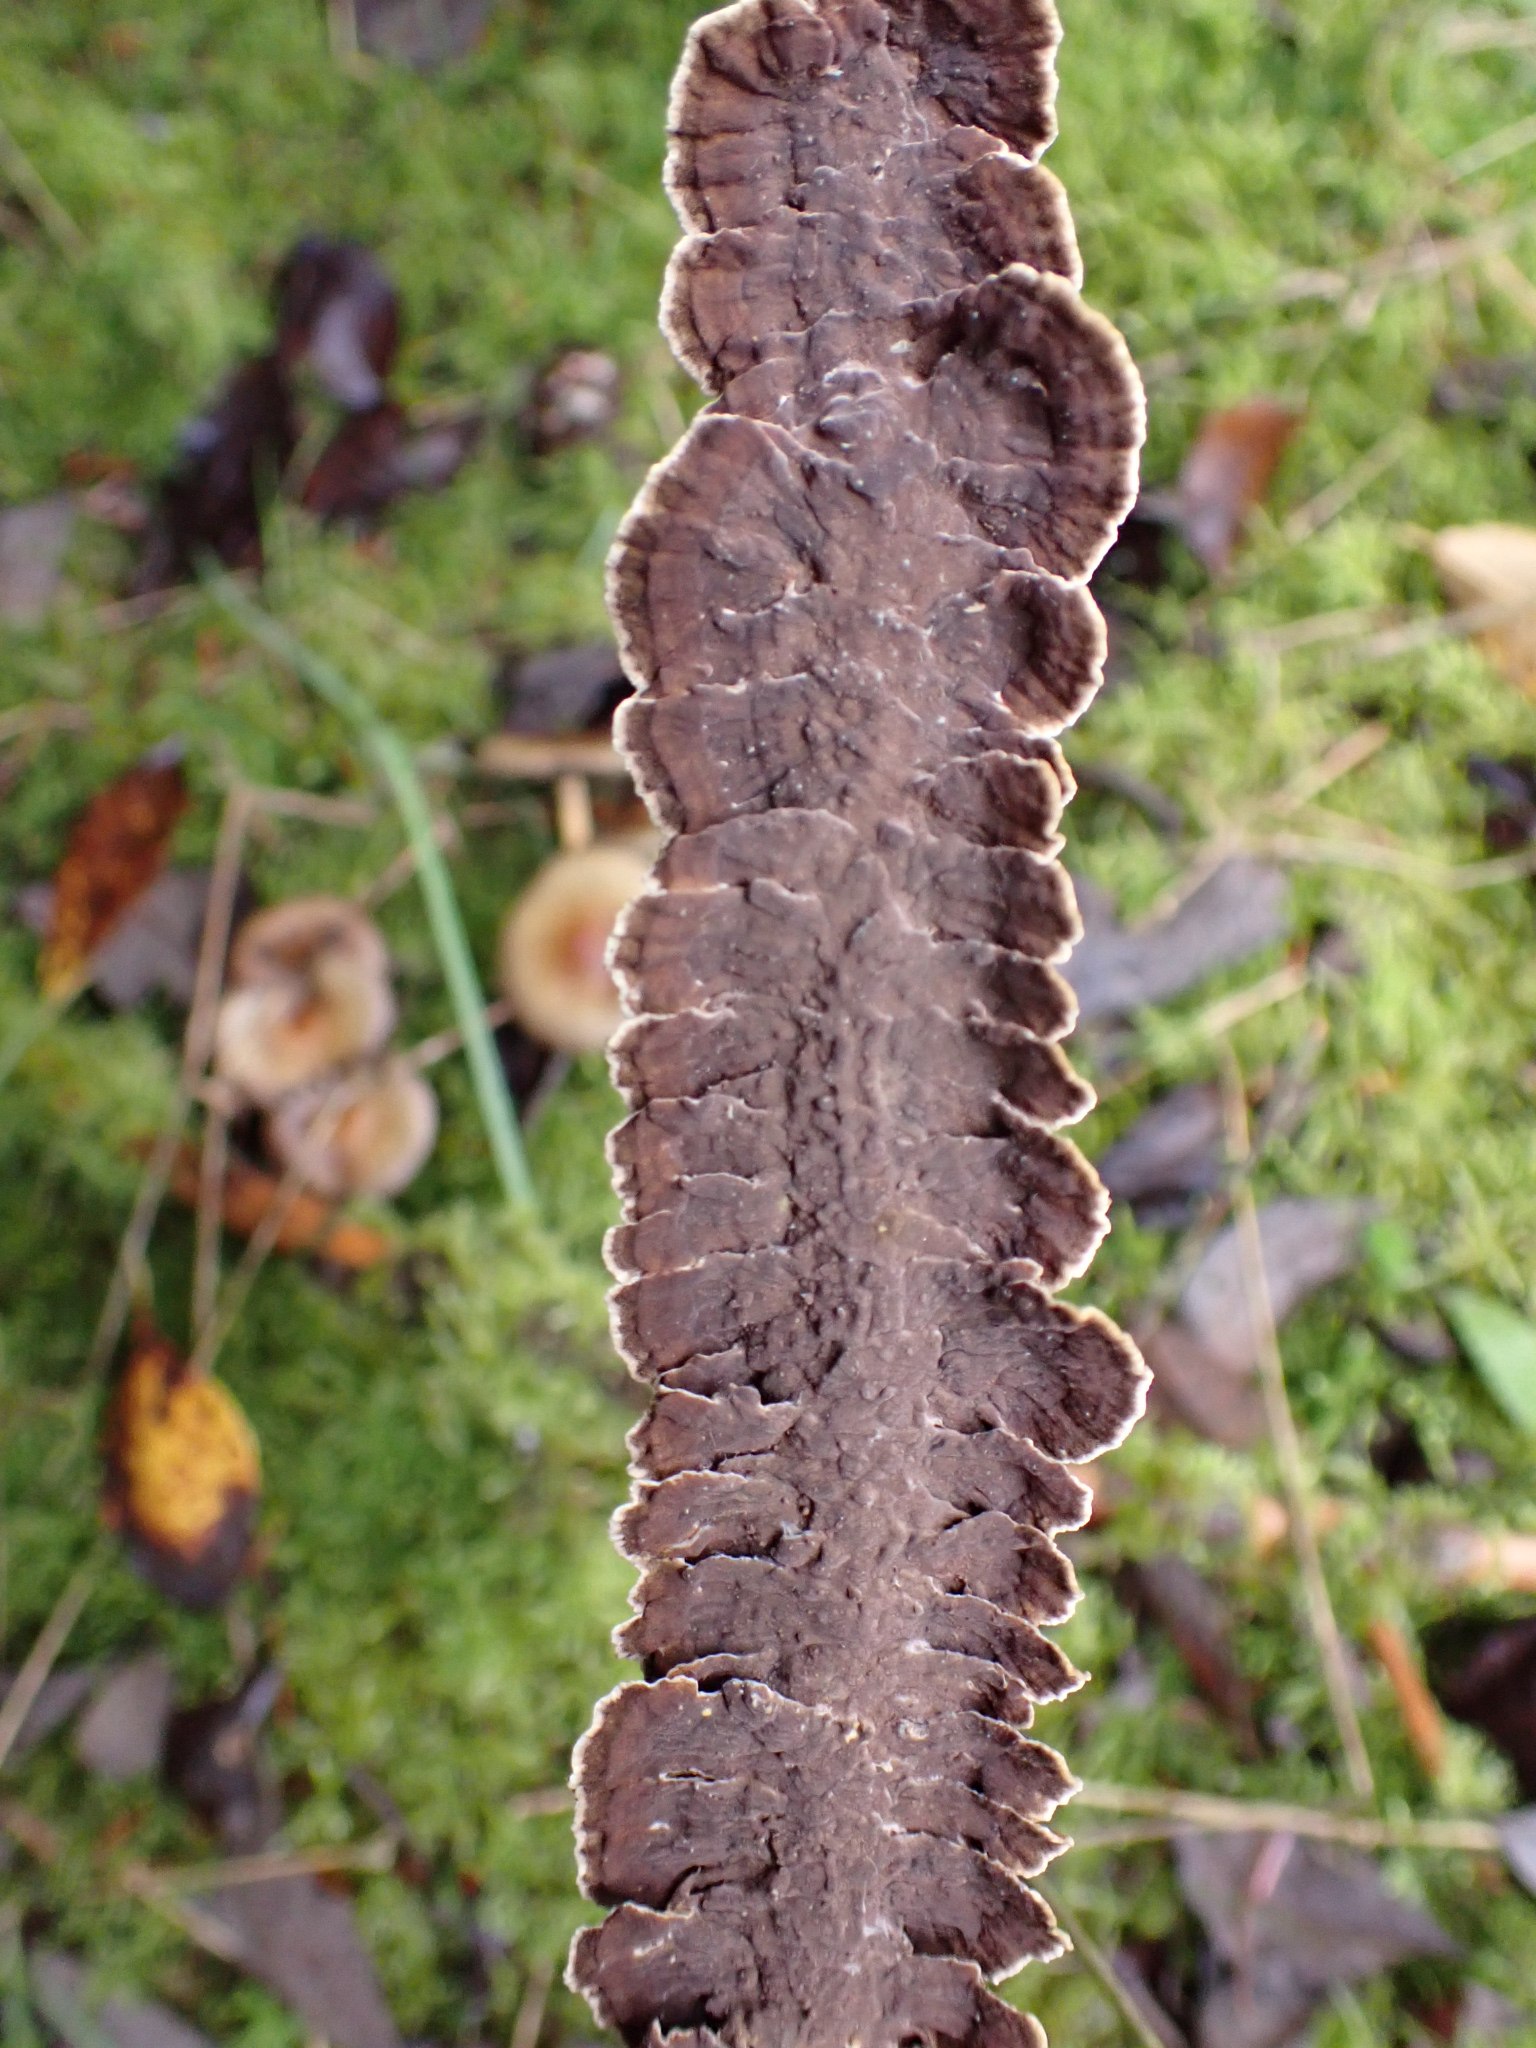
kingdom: Fungi
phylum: Basidiomycota
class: Agaricomycetes
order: Hymenochaetales
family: Hymenochaetaceae
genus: Hydnoporia
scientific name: Hydnoporia tabacina
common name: tobaksbrun ruslædersvamp
